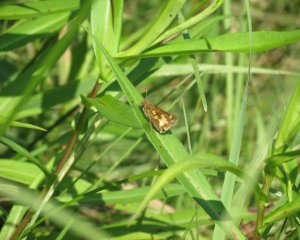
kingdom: Animalia
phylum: Arthropoda
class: Insecta
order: Lepidoptera
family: Hesperiidae
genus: Polites
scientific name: Polites coras
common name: Peck's Skipper
